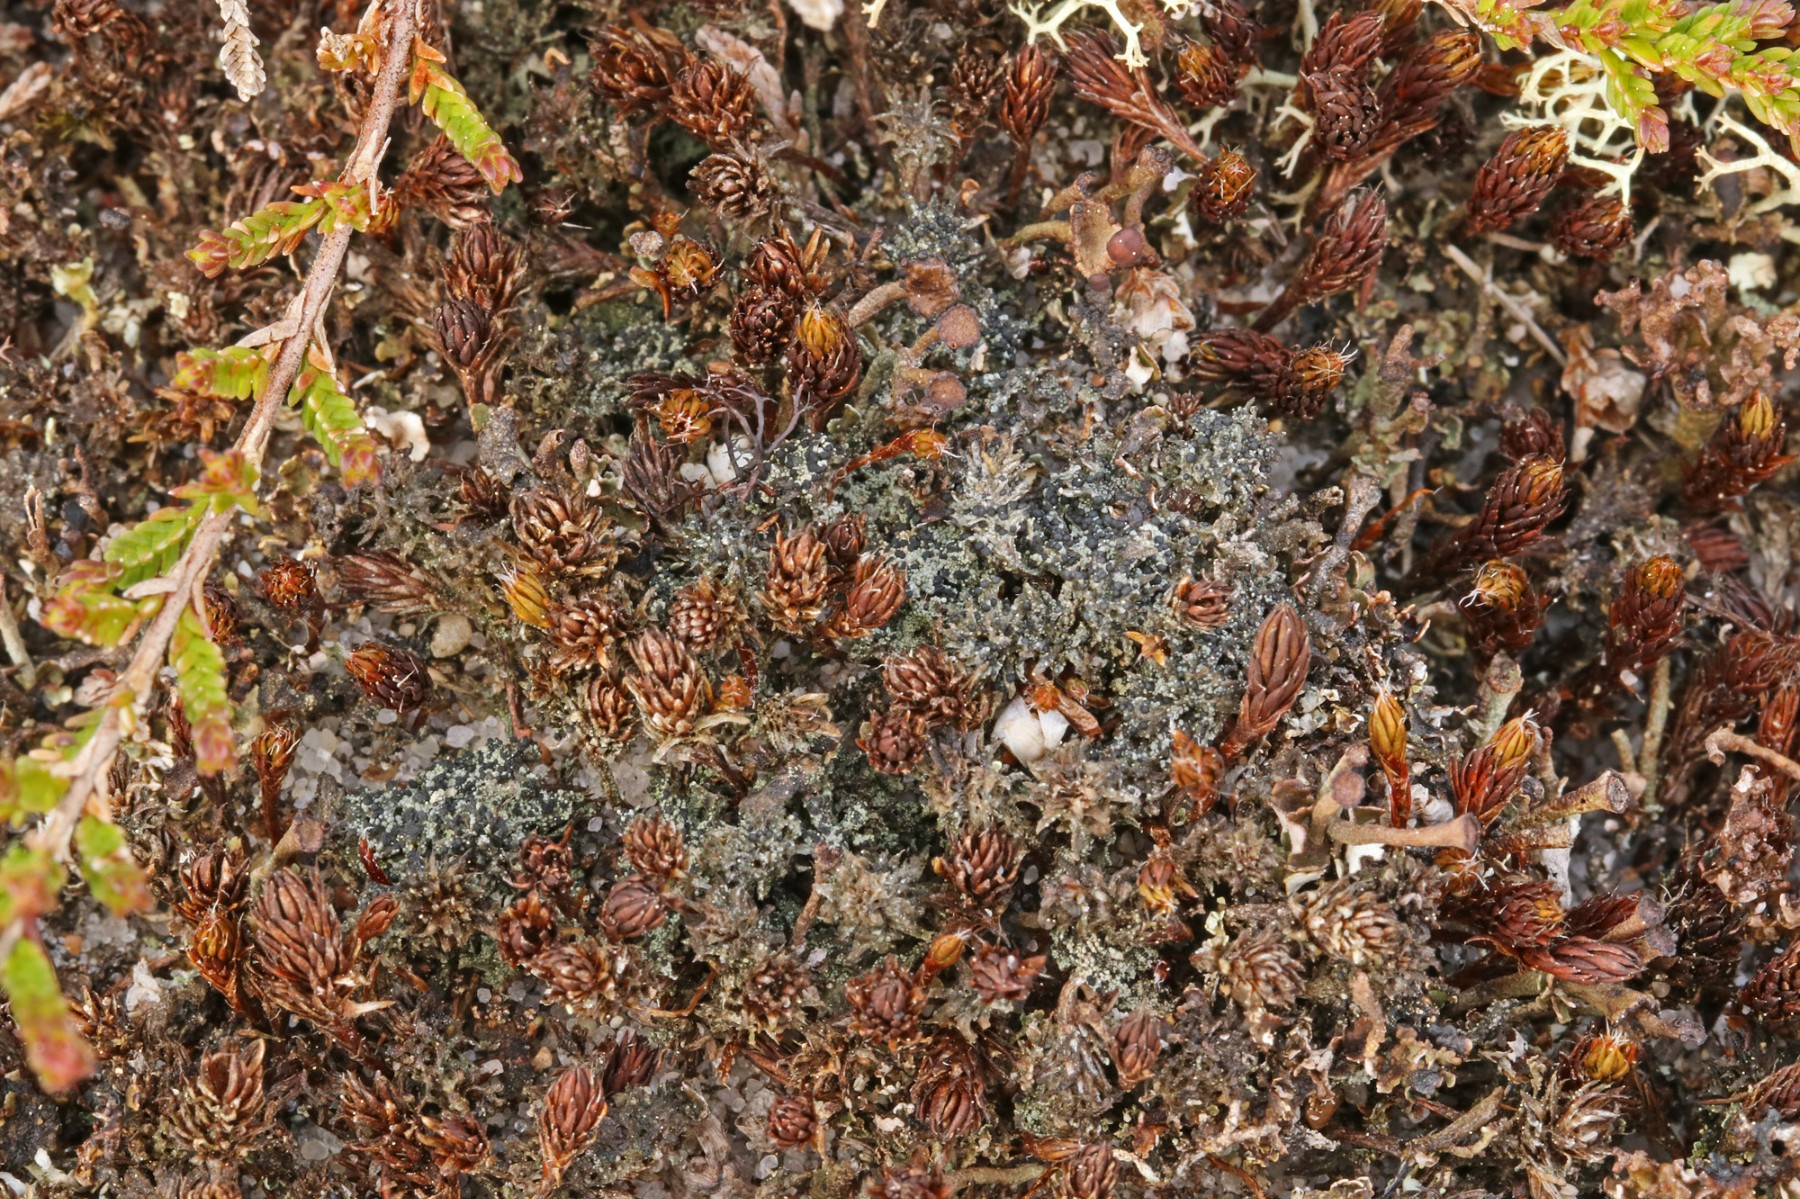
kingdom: Fungi
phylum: Ascomycota
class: Lecanoromycetes
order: Lecanorales
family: Byssolomataceae
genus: Micarea
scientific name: Micarea lignaria
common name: tørve-knaplav
